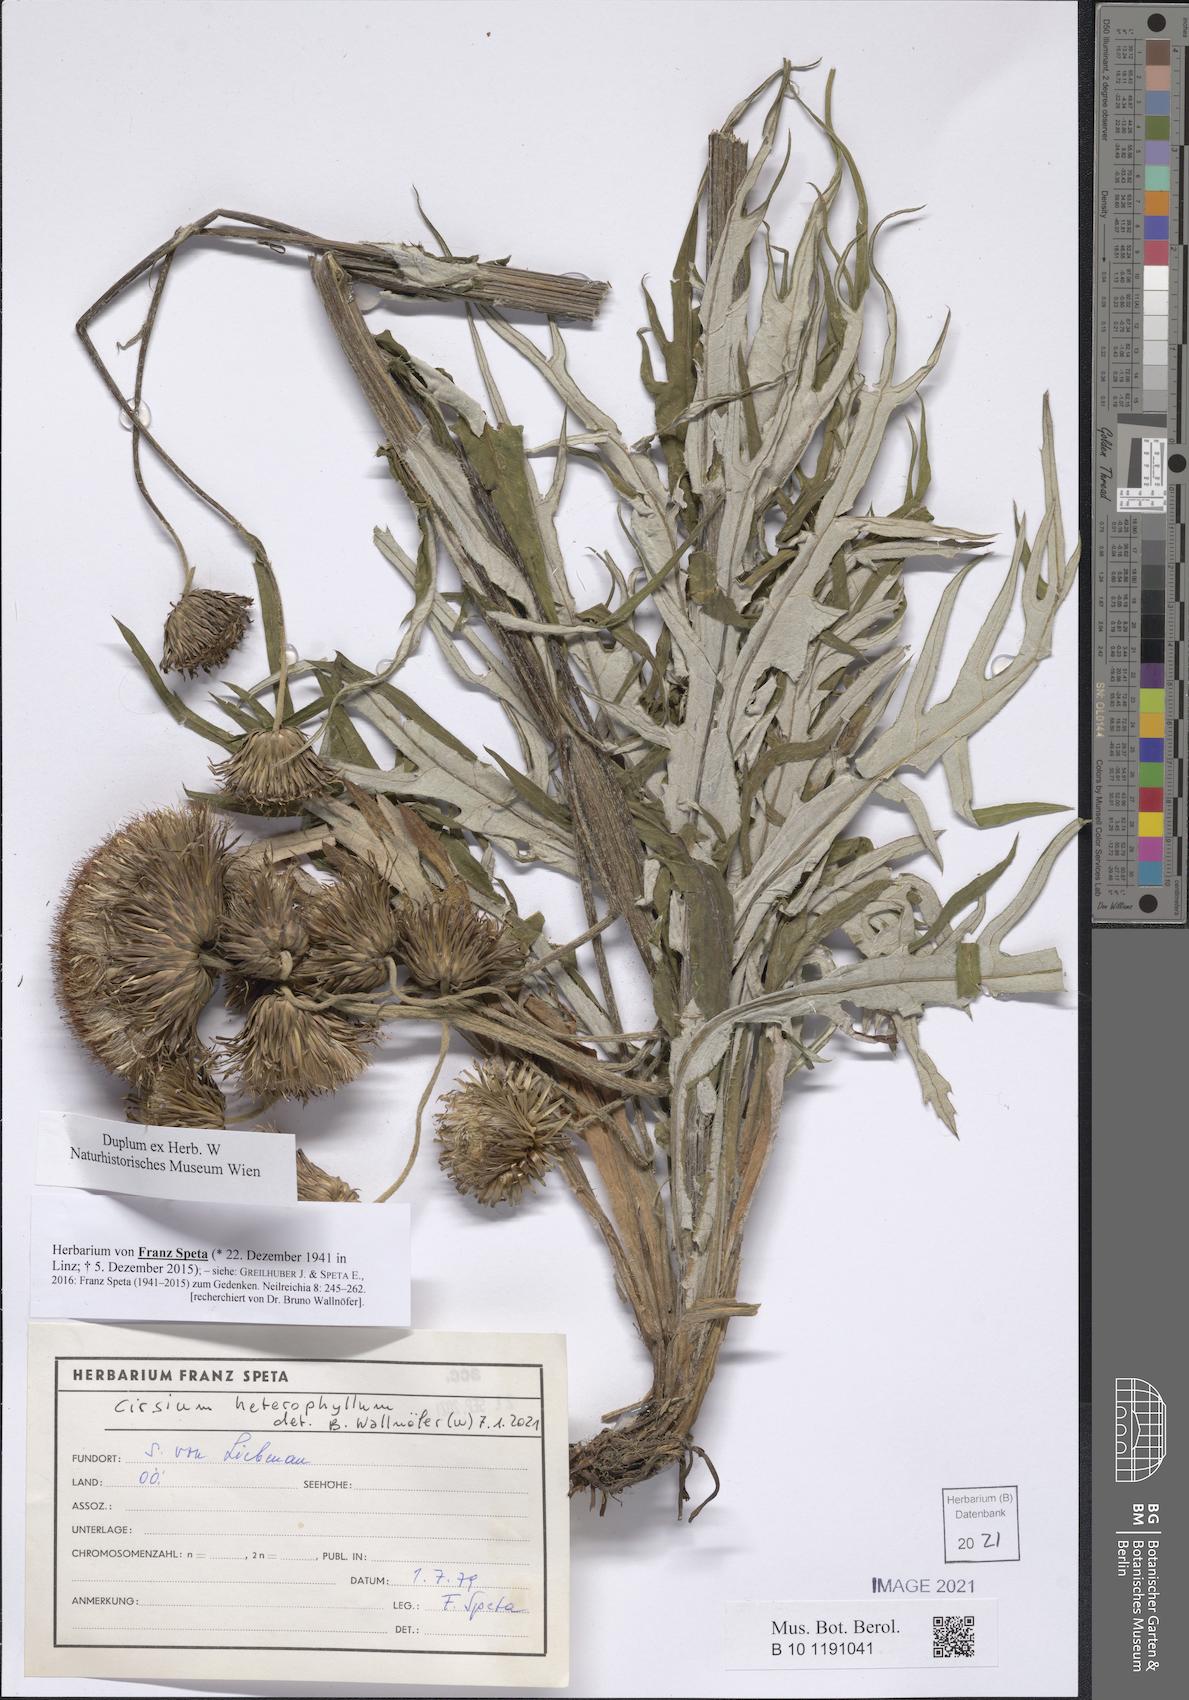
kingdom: Plantae
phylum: Tracheophyta
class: Magnoliopsida
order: Asterales
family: Asteraceae
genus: Cirsium
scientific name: Cirsium heterophyllum
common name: Melancholy thistle
